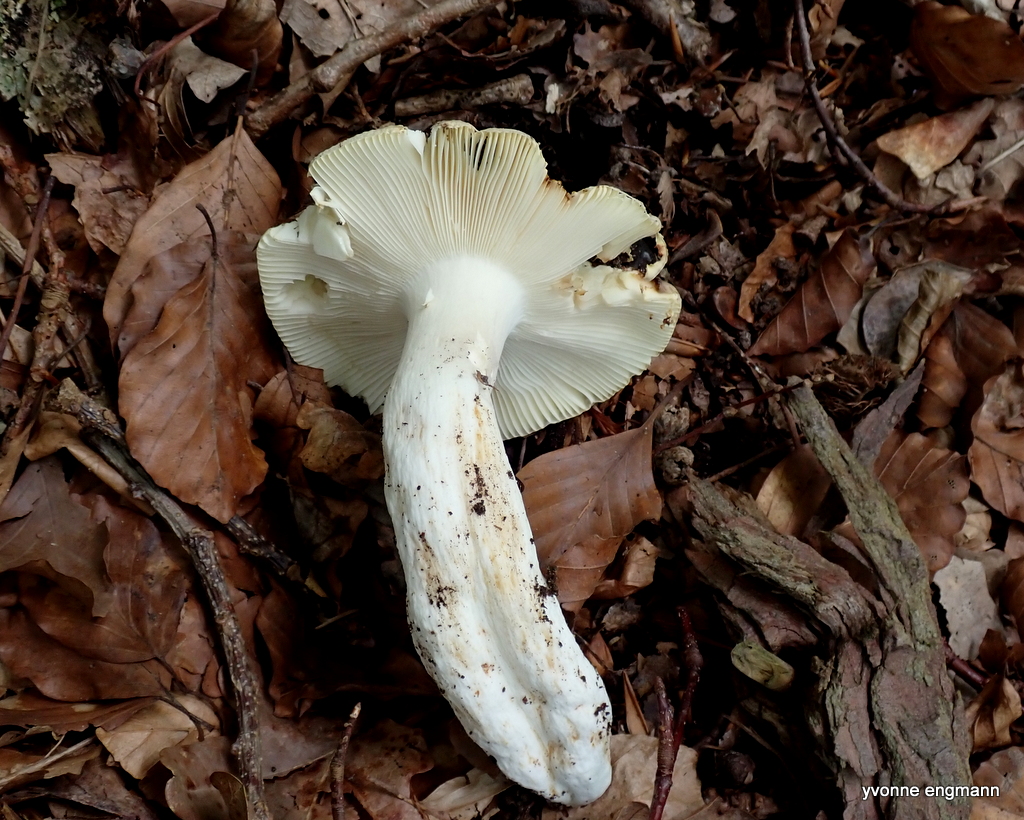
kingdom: Fungi
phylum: Basidiomycota
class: Agaricomycetes
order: Russulales
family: Russulaceae
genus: Russula
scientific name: Russula violeipes
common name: ferskengul skørhat
